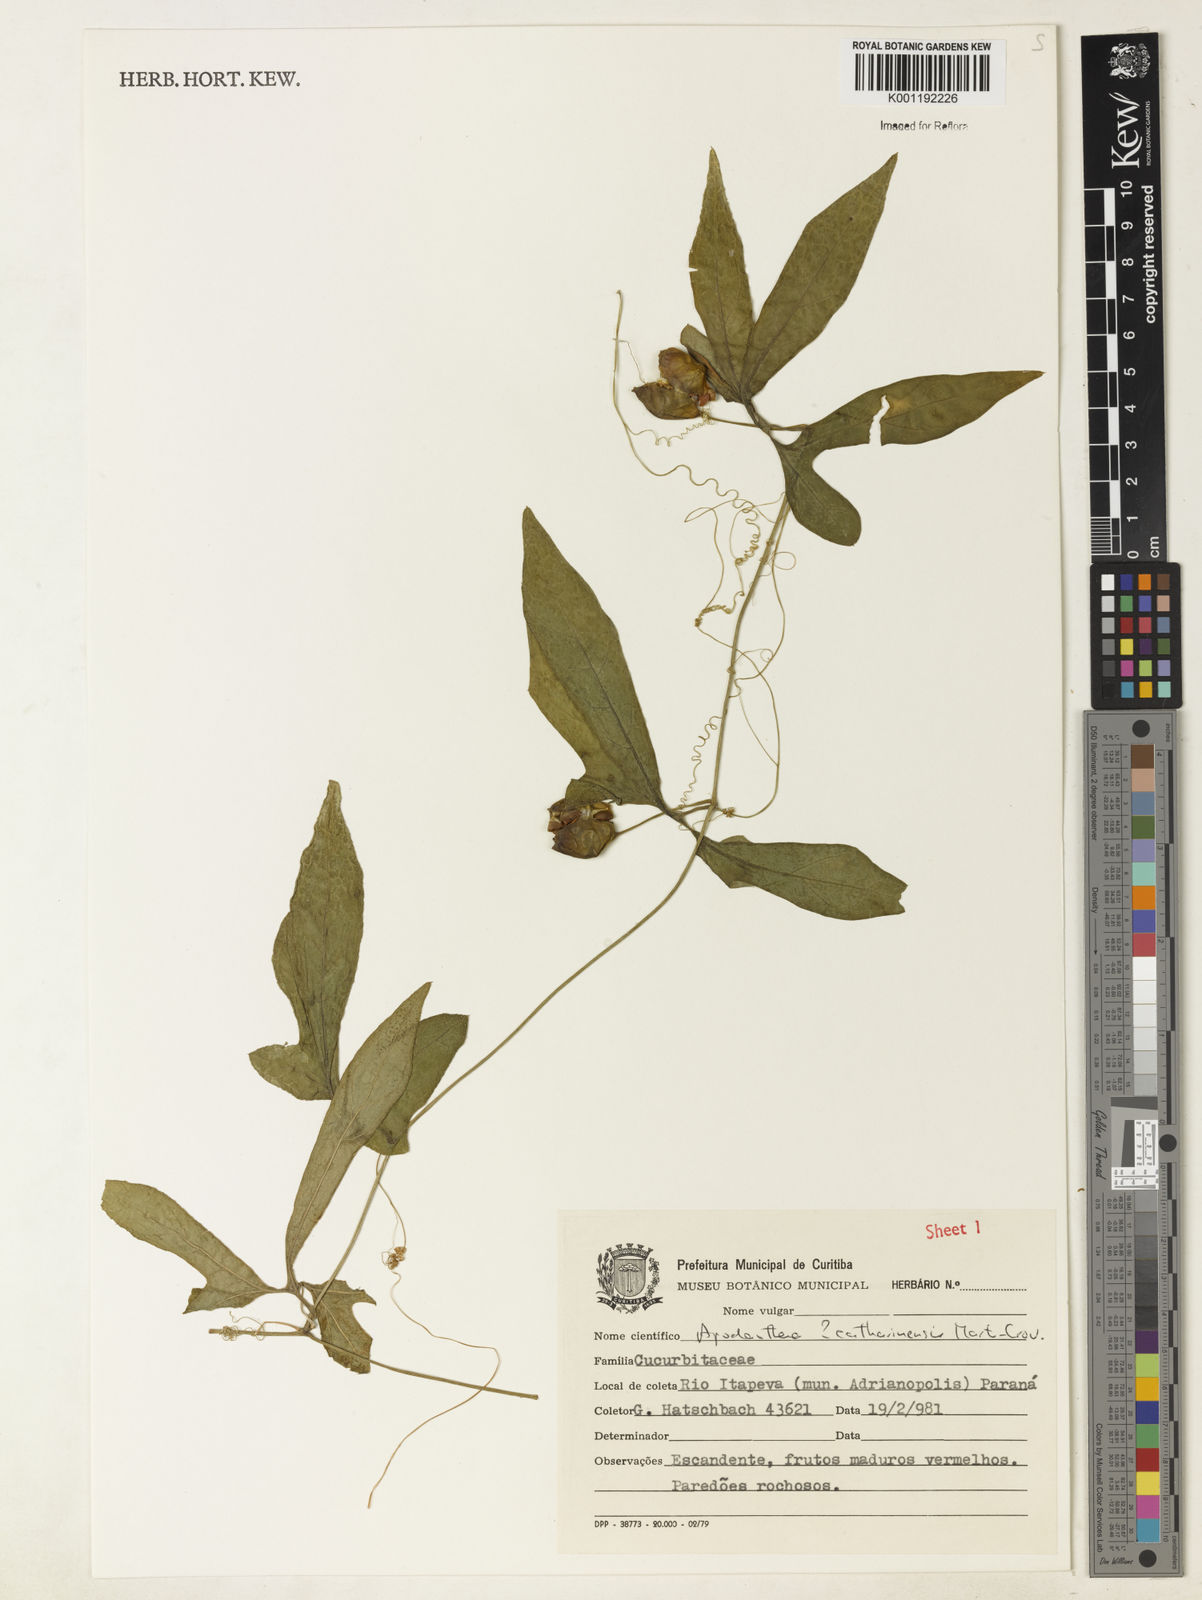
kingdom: Plantae
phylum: Tracheophyta
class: Magnoliopsida
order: Cucurbitales
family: Cucurbitaceae
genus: Apodanthera
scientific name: Apodanthera catharinensis
